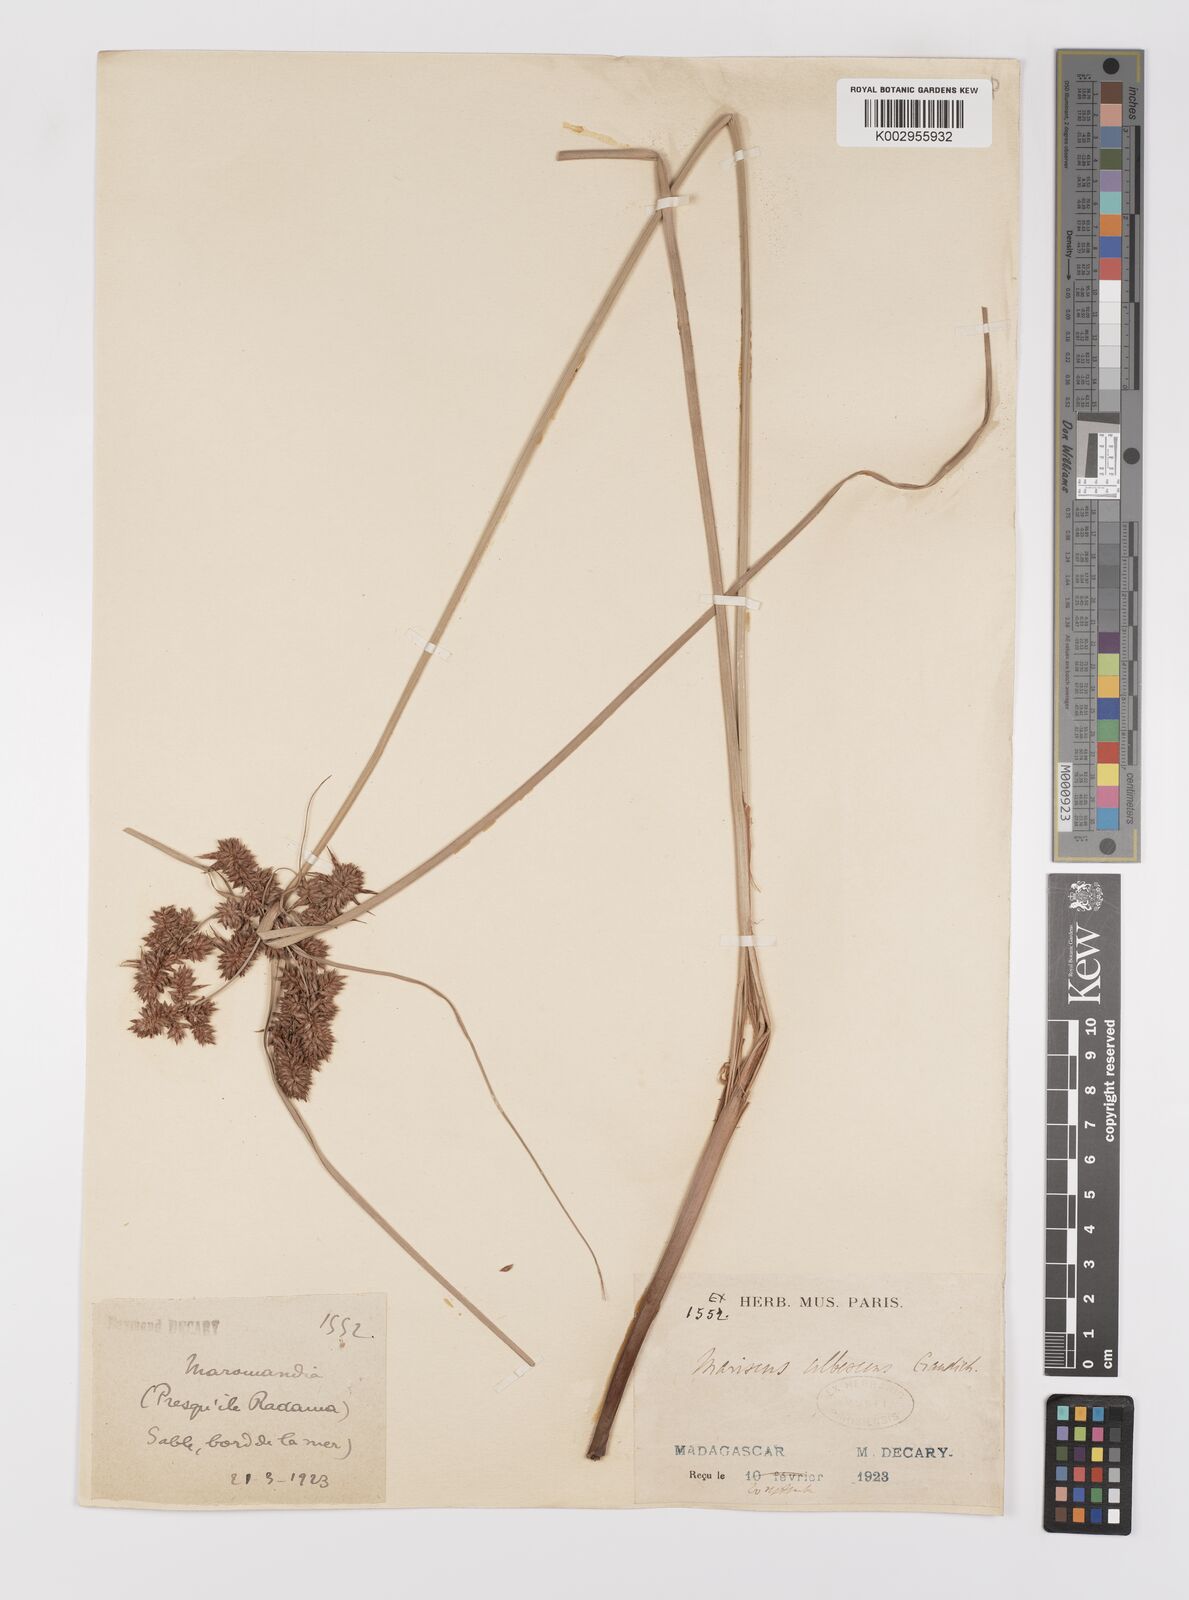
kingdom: Plantae
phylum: Tracheophyta
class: Liliopsida
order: Poales
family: Cyperaceae
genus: Cyperus
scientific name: Cyperus ligularis
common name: Swamp flat sedge
